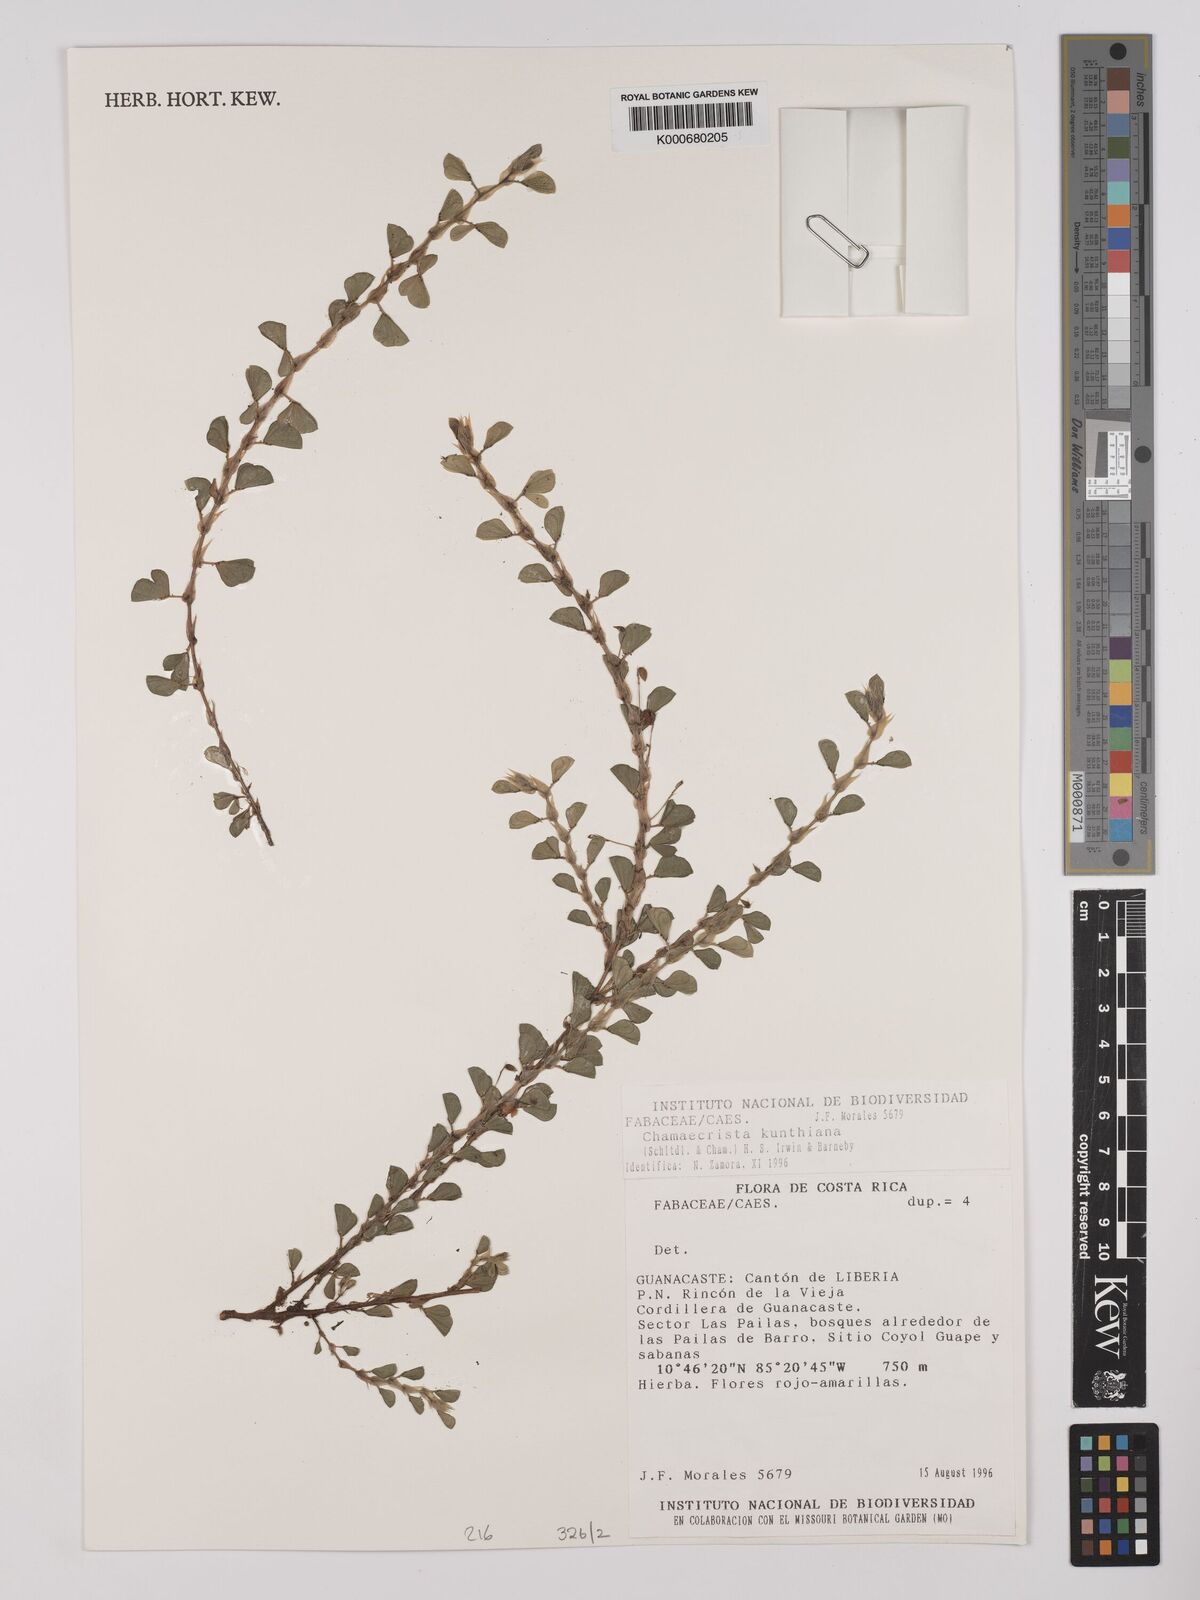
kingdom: Plantae
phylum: Tracheophyta
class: Magnoliopsida
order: Fabales
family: Fabaceae
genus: Chamaecrista
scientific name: Chamaecrista kunthiana
